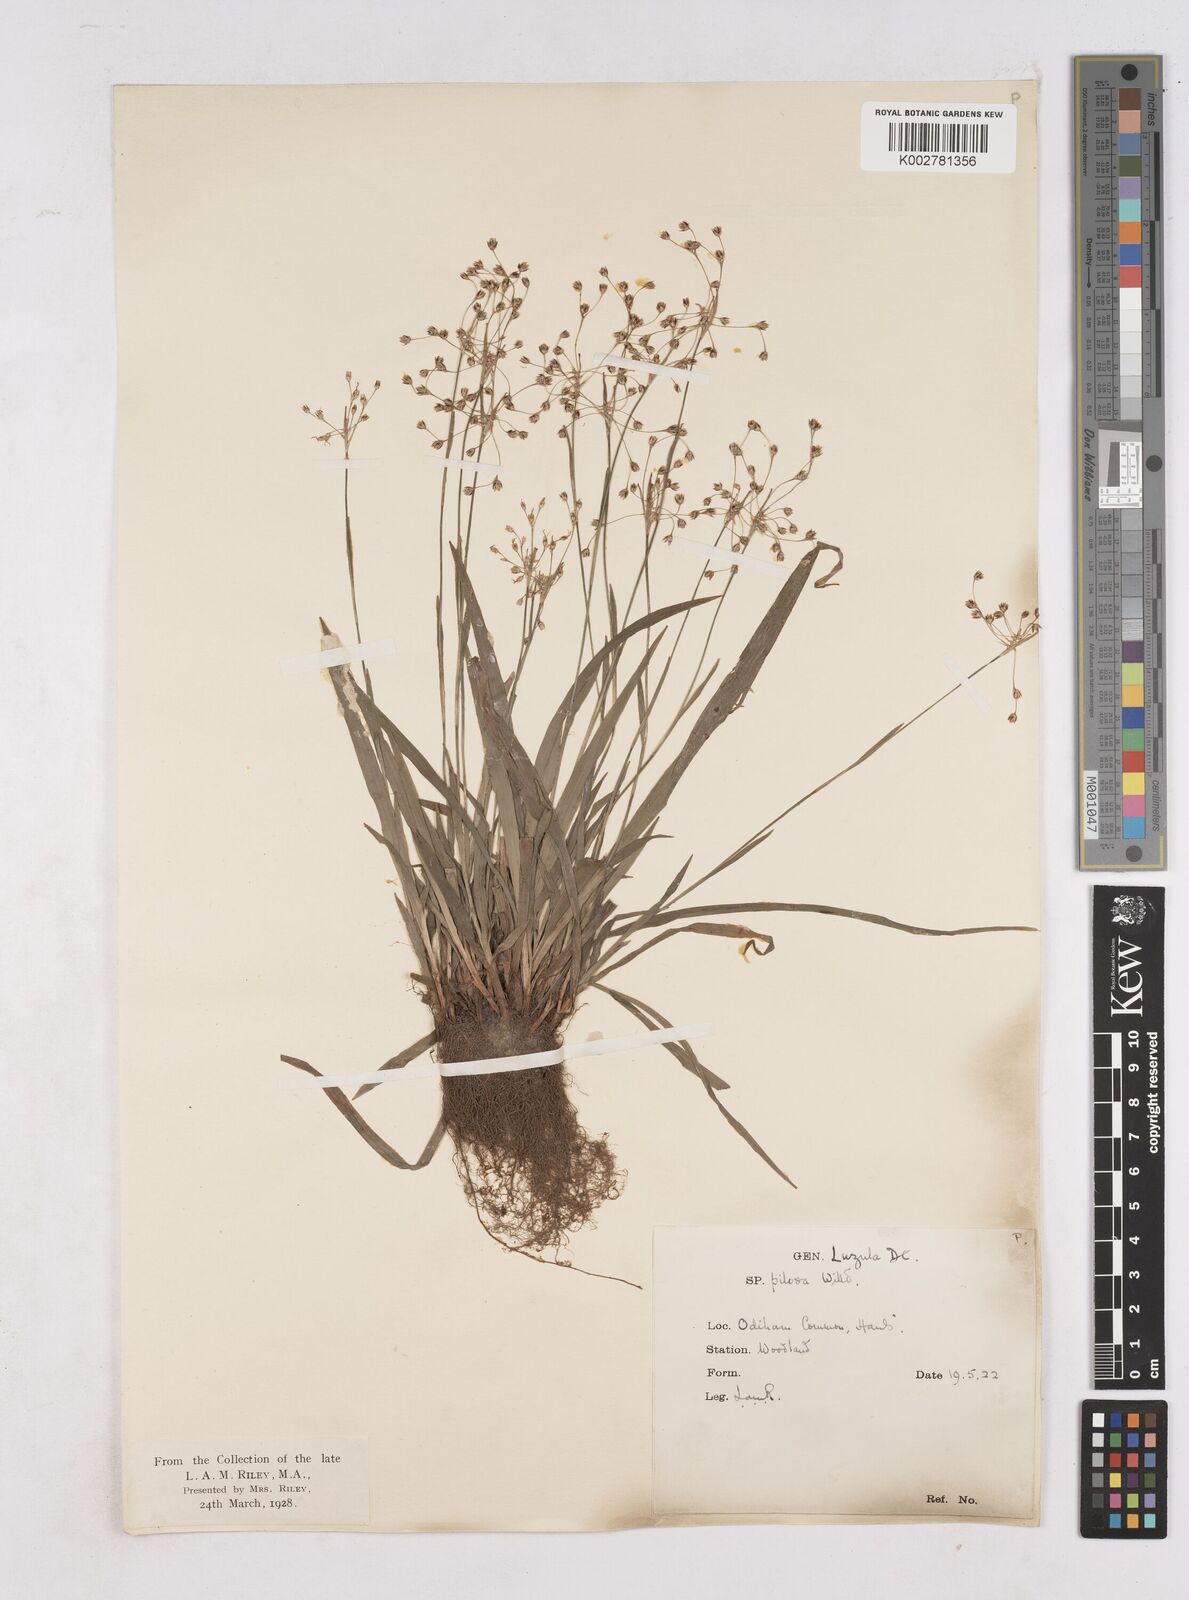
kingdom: Plantae
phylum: Tracheophyta
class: Liliopsida
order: Poales
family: Juncaceae
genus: Luzula
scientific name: Luzula pilosa
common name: Hairy wood-rush
